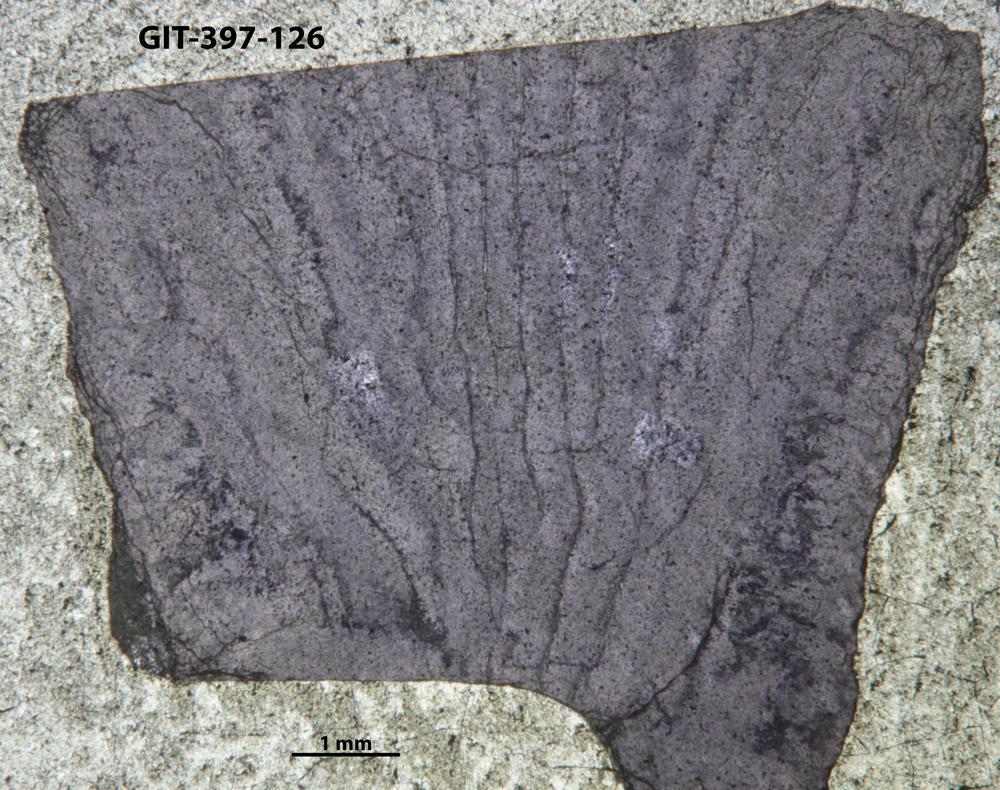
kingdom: Animalia
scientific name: Animalia
